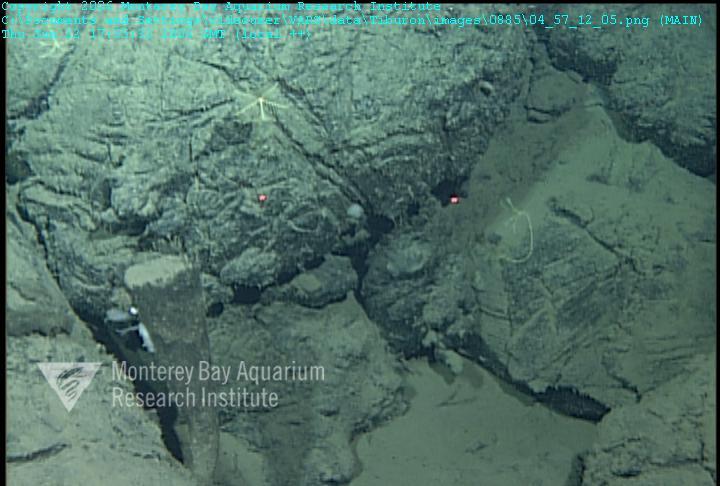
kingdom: Animalia
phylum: Porifera
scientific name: Porifera
